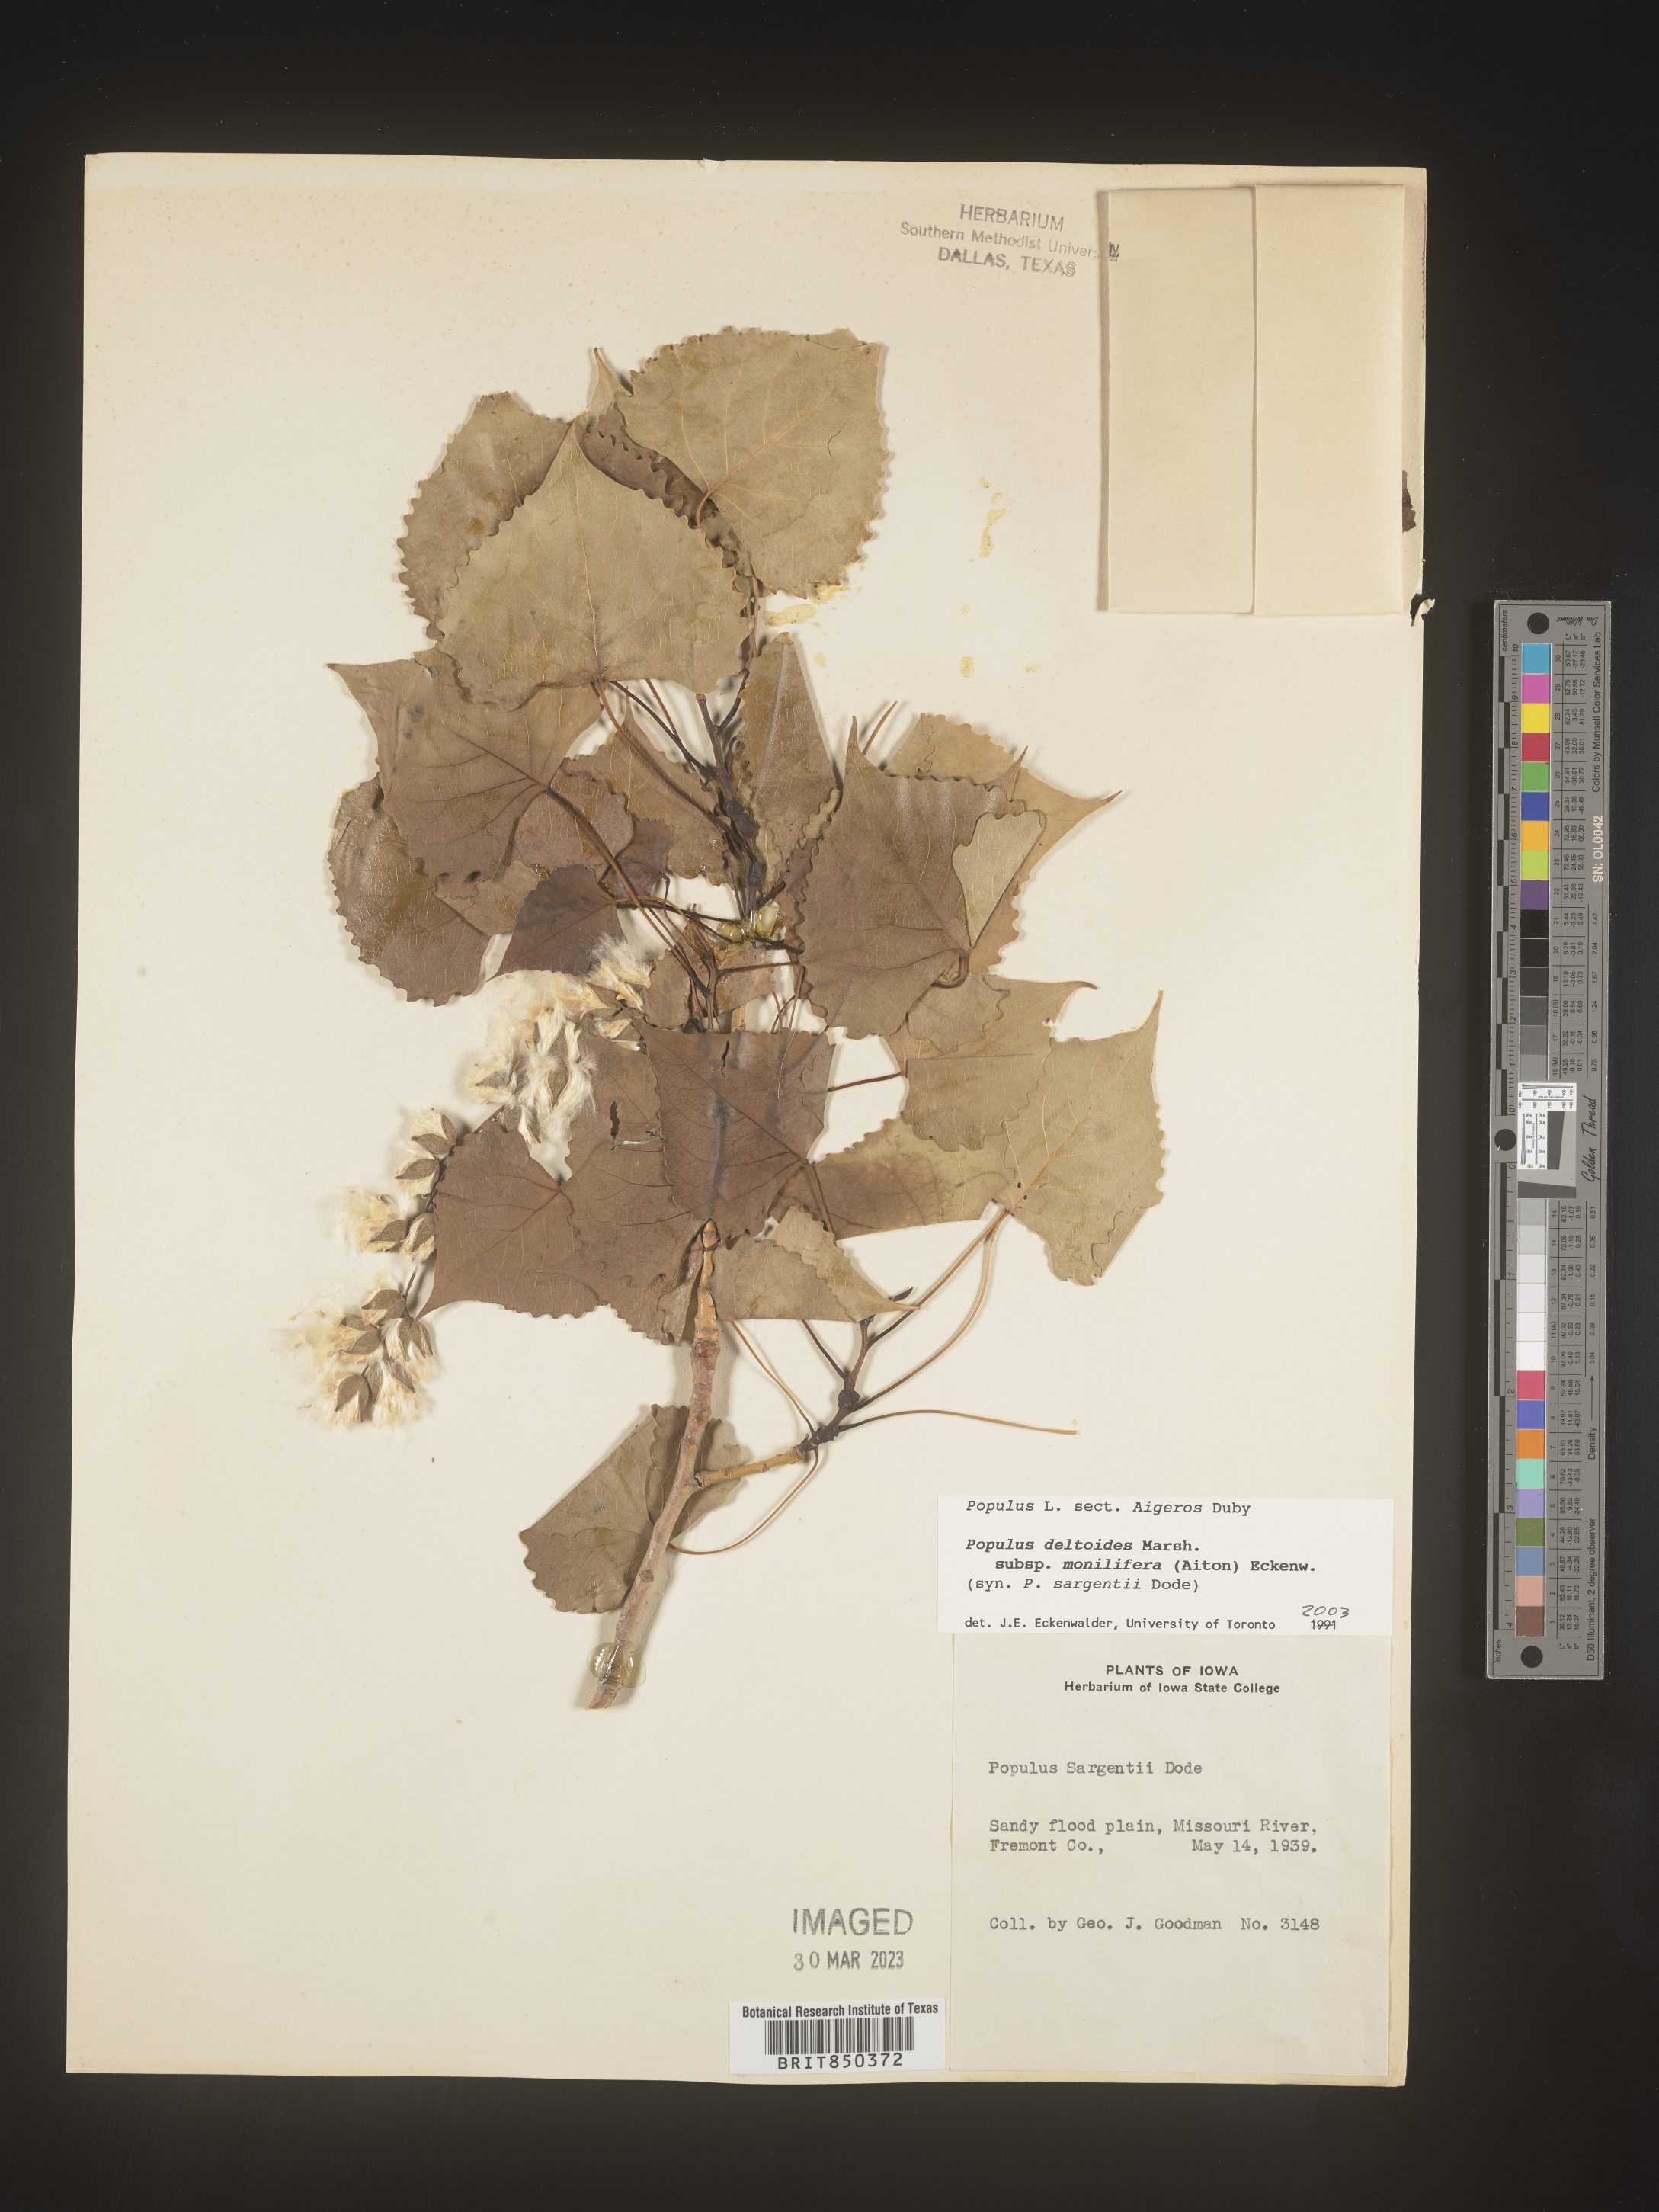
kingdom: Plantae
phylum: Tracheophyta
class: Magnoliopsida
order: Malpighiales
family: Salicaceae
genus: Populus
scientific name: Populus deltoides
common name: Eastern cottonwood
